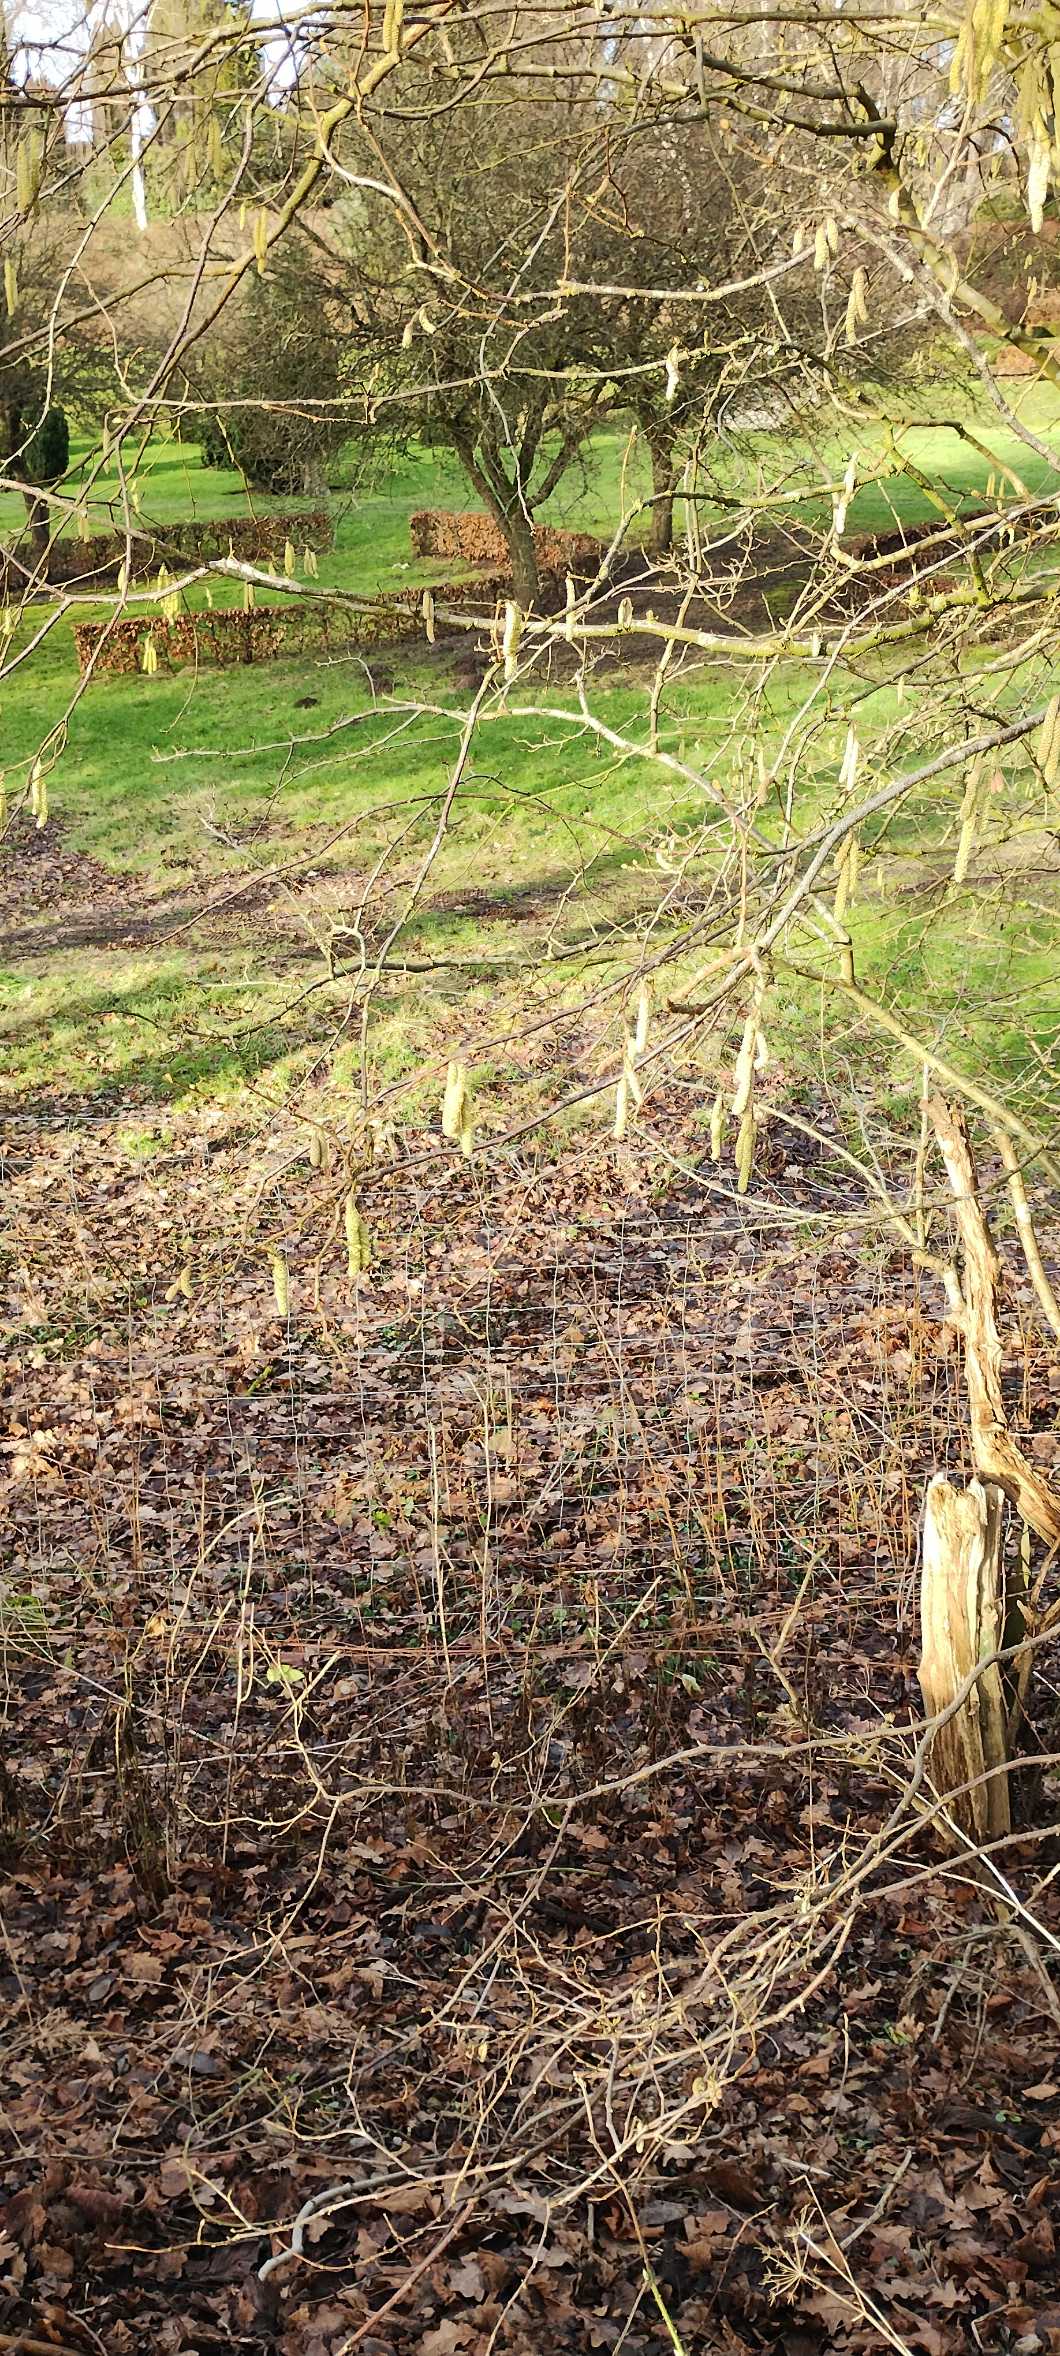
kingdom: Plantae
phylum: Tracheophyta
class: Magnoliopsida
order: Fagales
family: Betulaceae
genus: Corylus
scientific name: Corylus avellana
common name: Hassel
